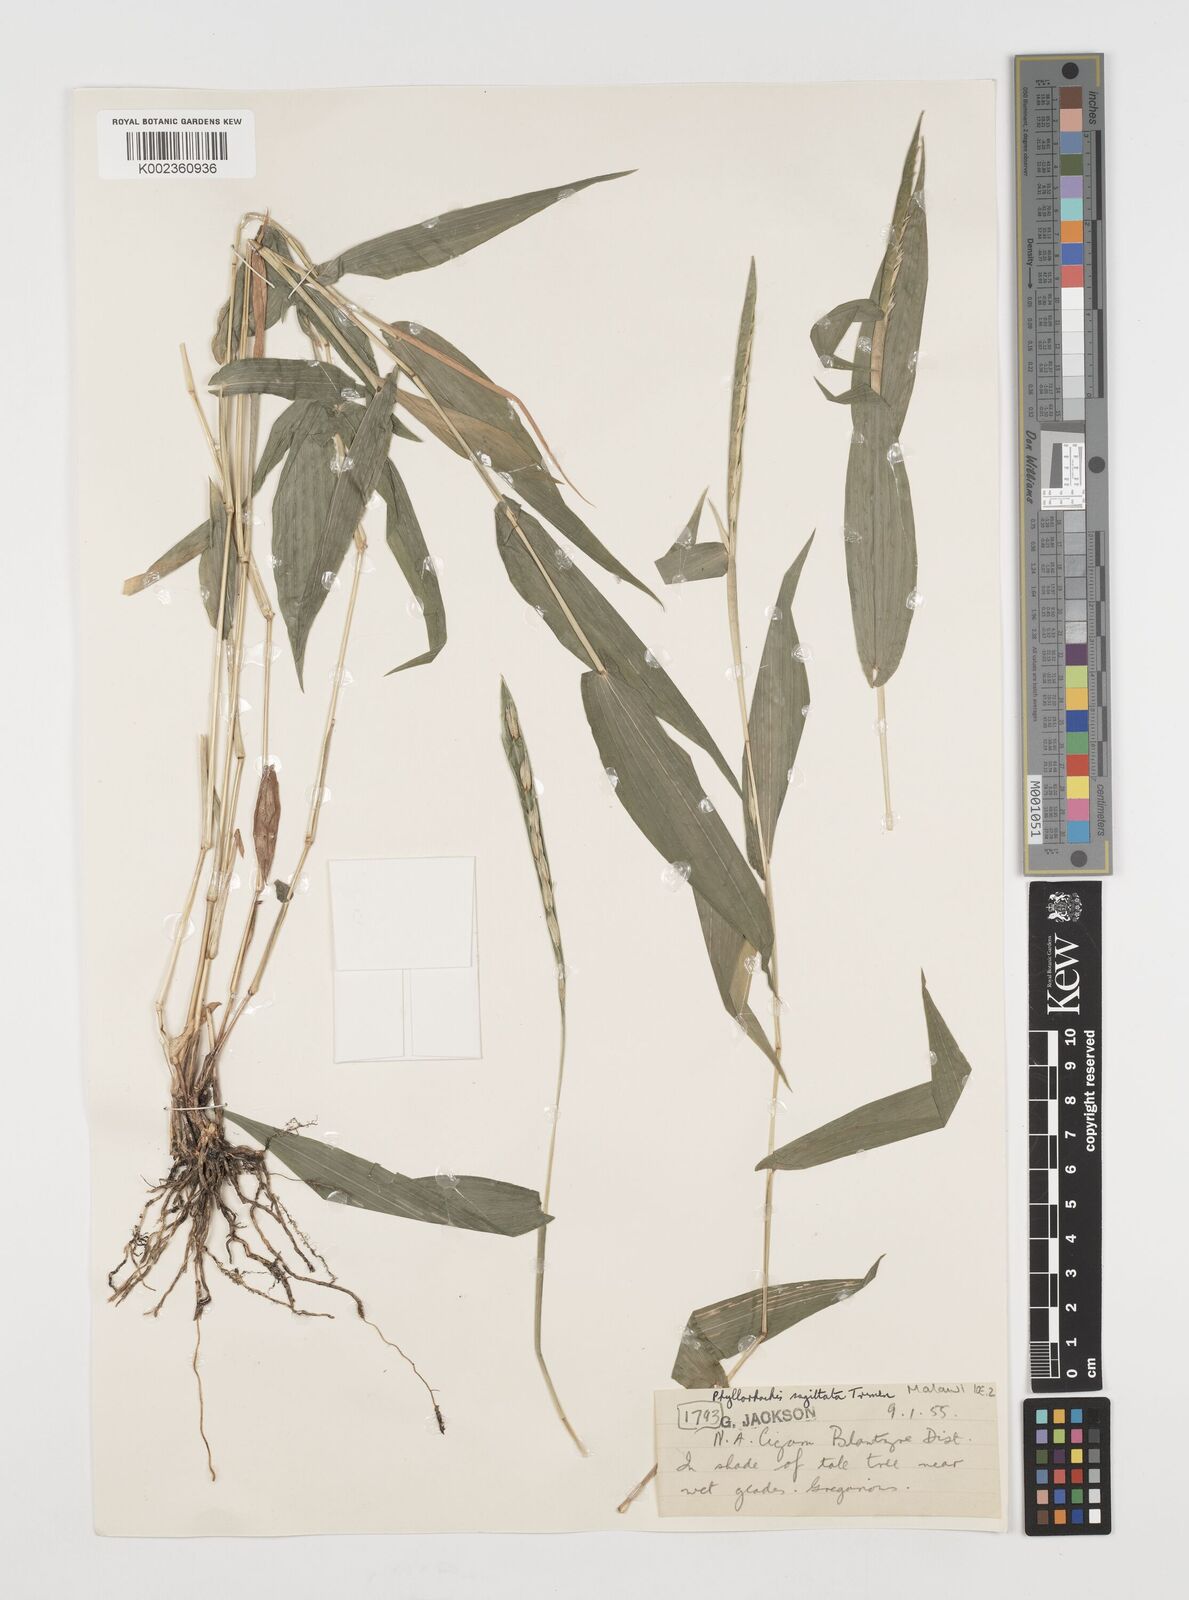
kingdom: Plantae
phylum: Tracheophyta
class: Liliopsida
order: Poales
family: Poaceae
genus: Phyllorachis
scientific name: Phyllorachis sagittata
